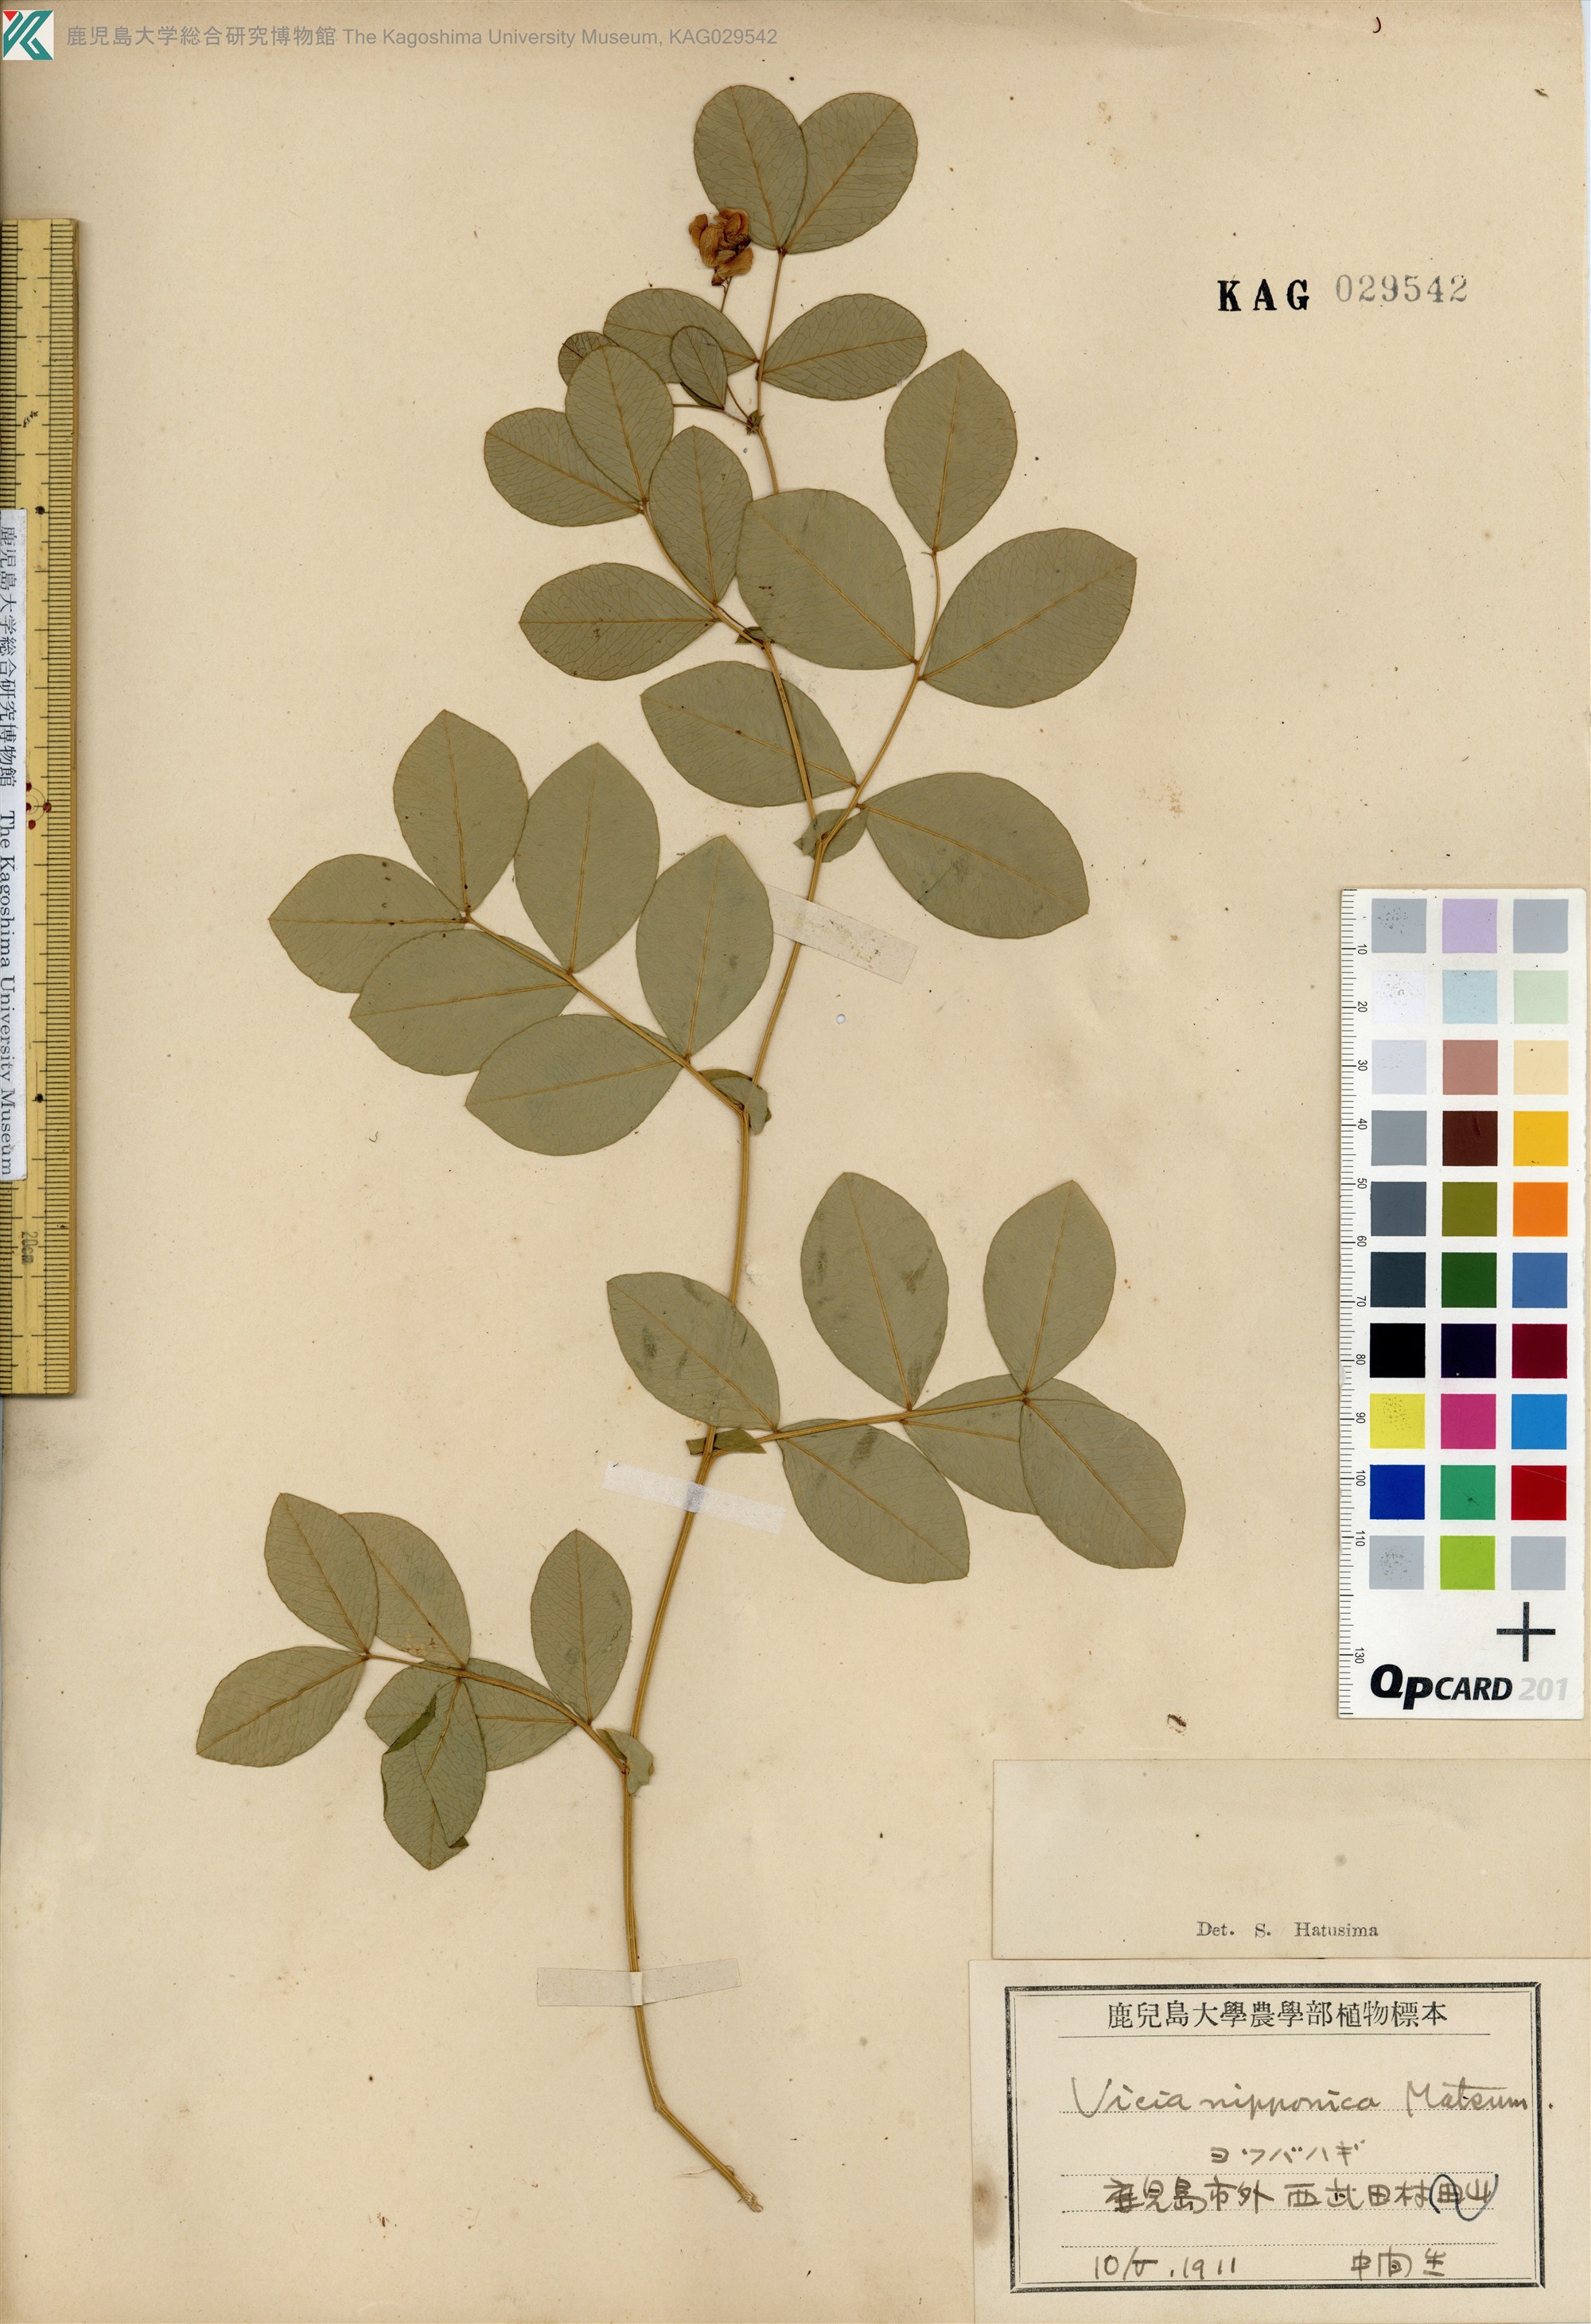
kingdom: Plantae
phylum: Tracheophyta
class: Magnoliopsida
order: Fabales
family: Fabaceae
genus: Vicia
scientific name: Vicia nipponica
